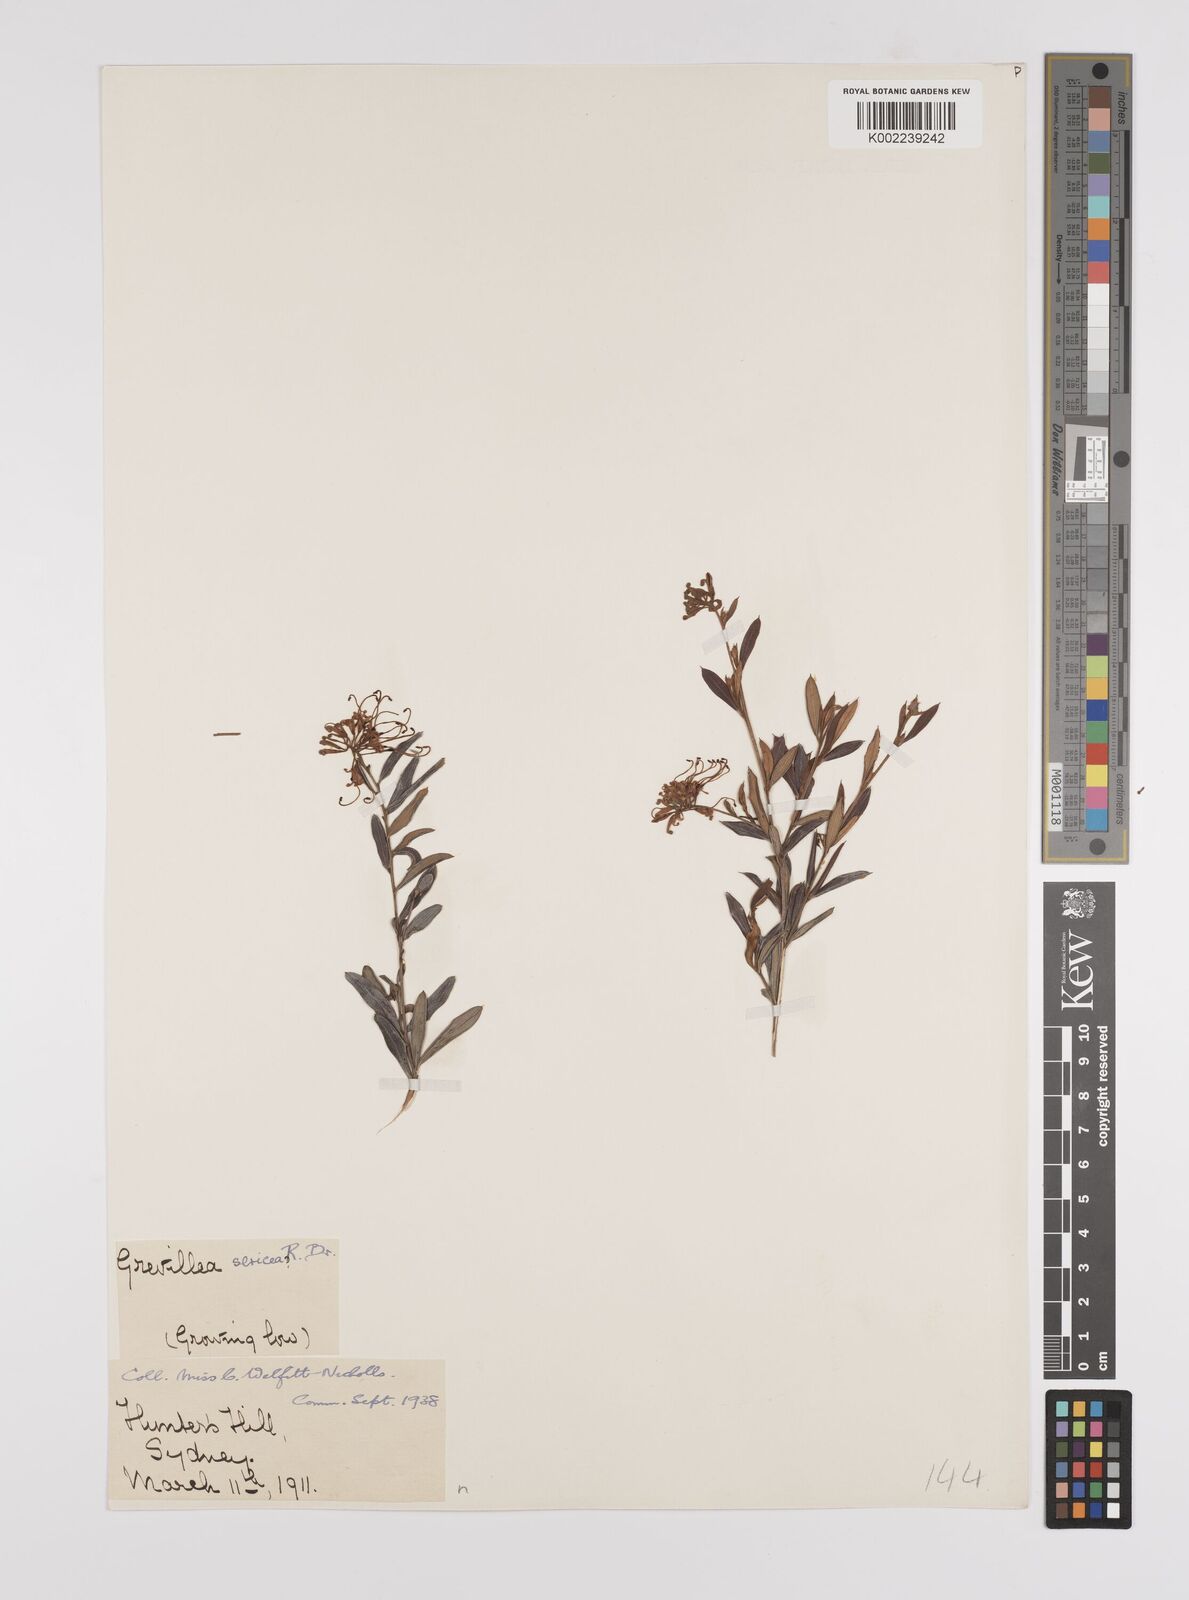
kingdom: Plantae
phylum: Tracheophyta
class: Magnoliopsida
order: Proteales
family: Proteaceae
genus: Grevillea
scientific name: Grevillea sericea
